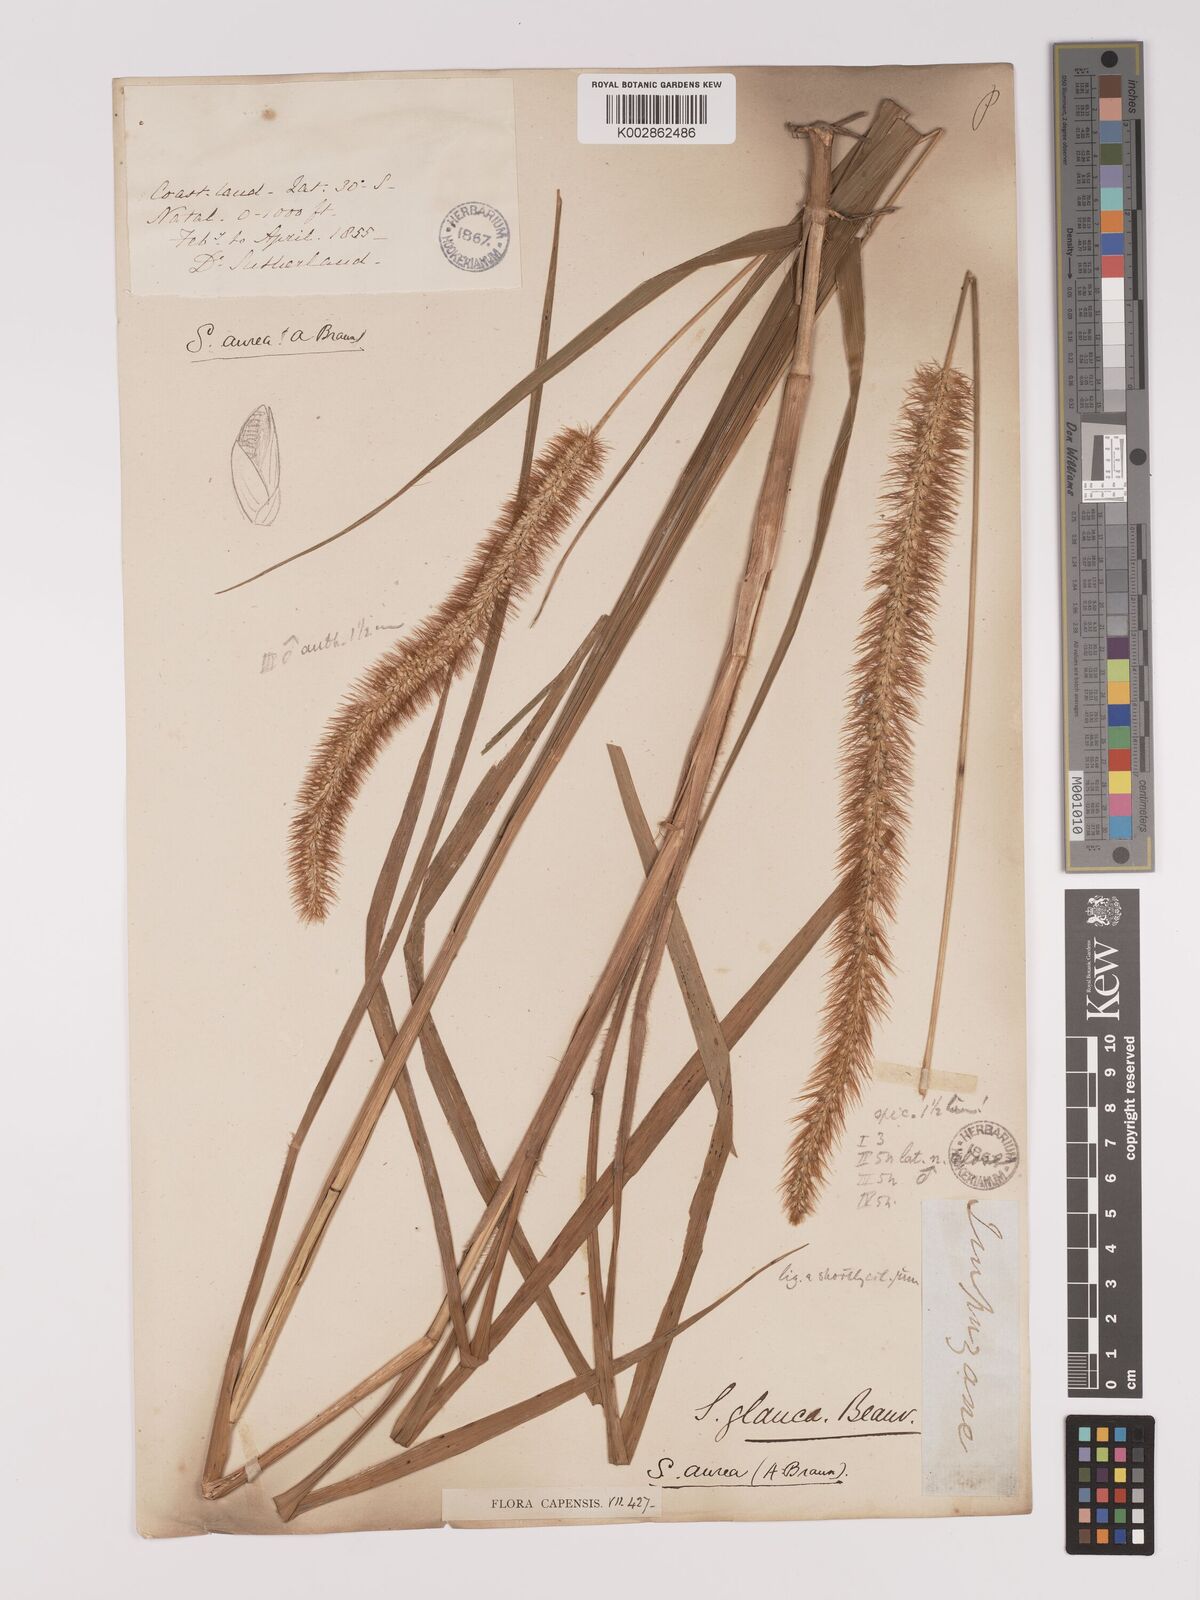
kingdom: Plantae
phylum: Tracheophyta
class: Liliopsida
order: Poales
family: Poaceae
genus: Setaria
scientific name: Setaria sphacelata
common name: African bristlegrass
